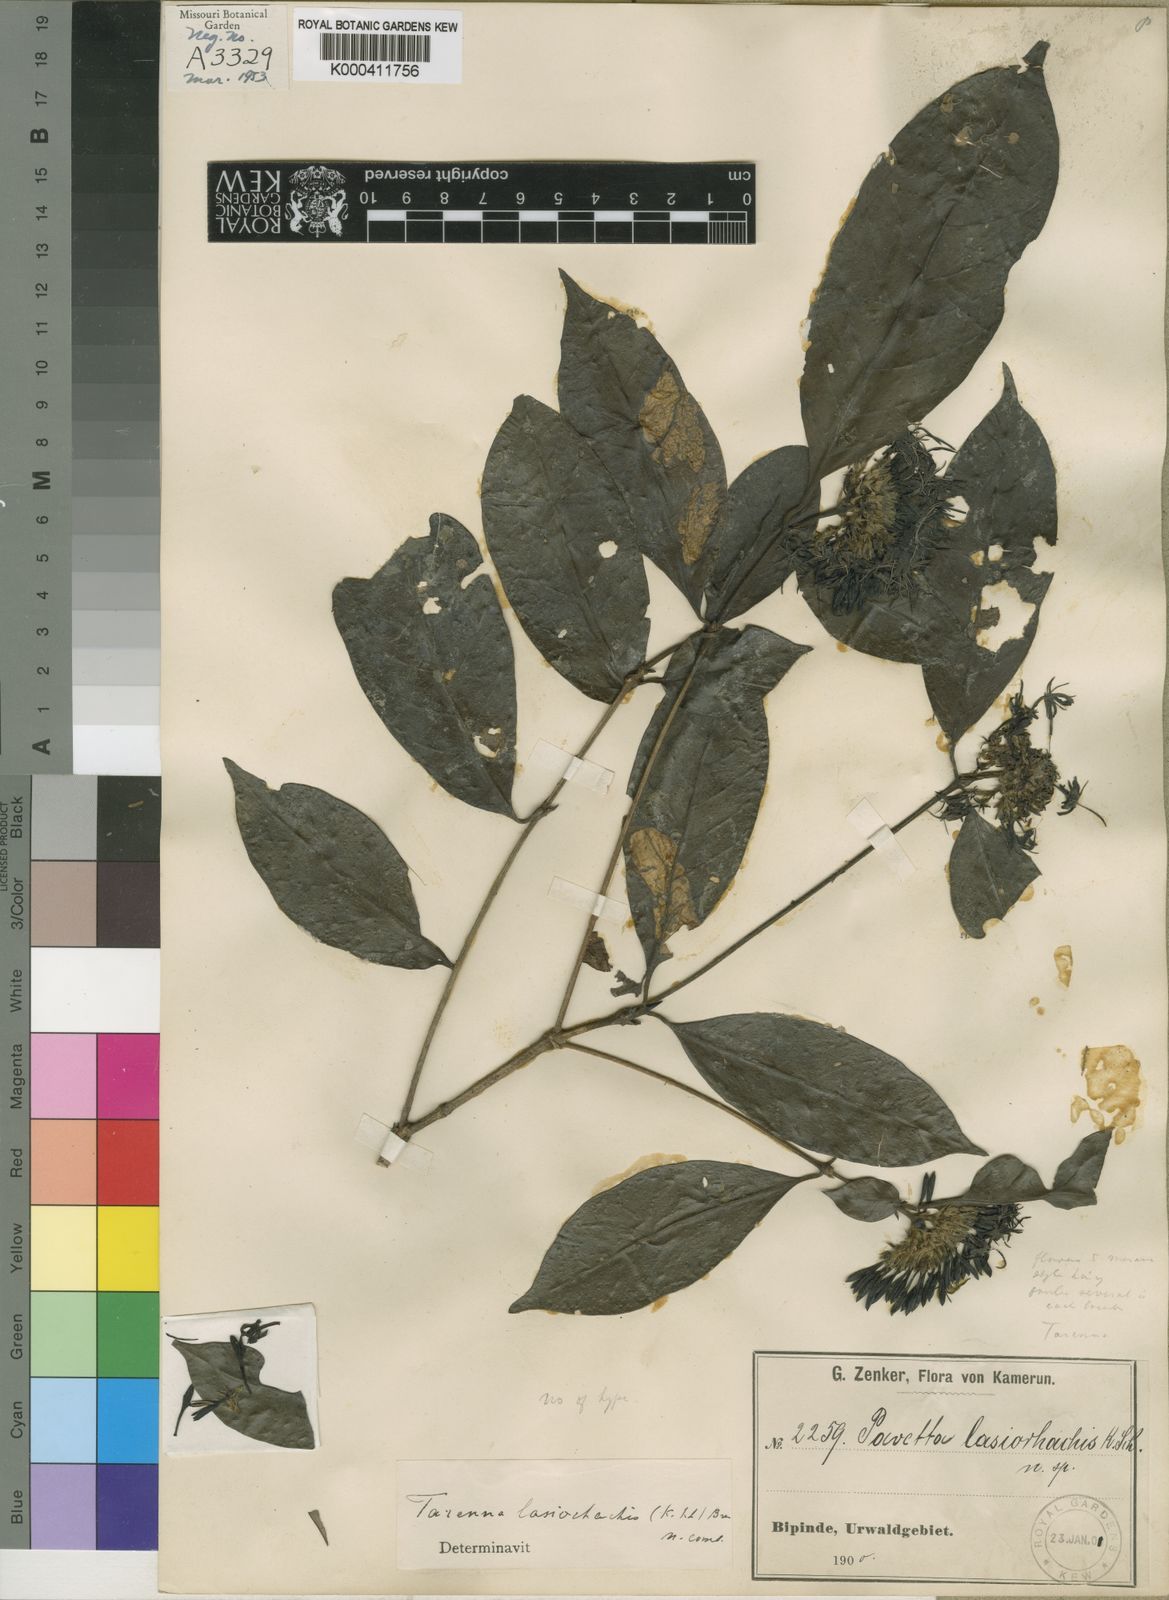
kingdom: Plantae
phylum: Tracheophyta
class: Magnoliopsida
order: Gentianales
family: Rubiaceae
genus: Tarenna
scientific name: Tarenna lasiorhachis
